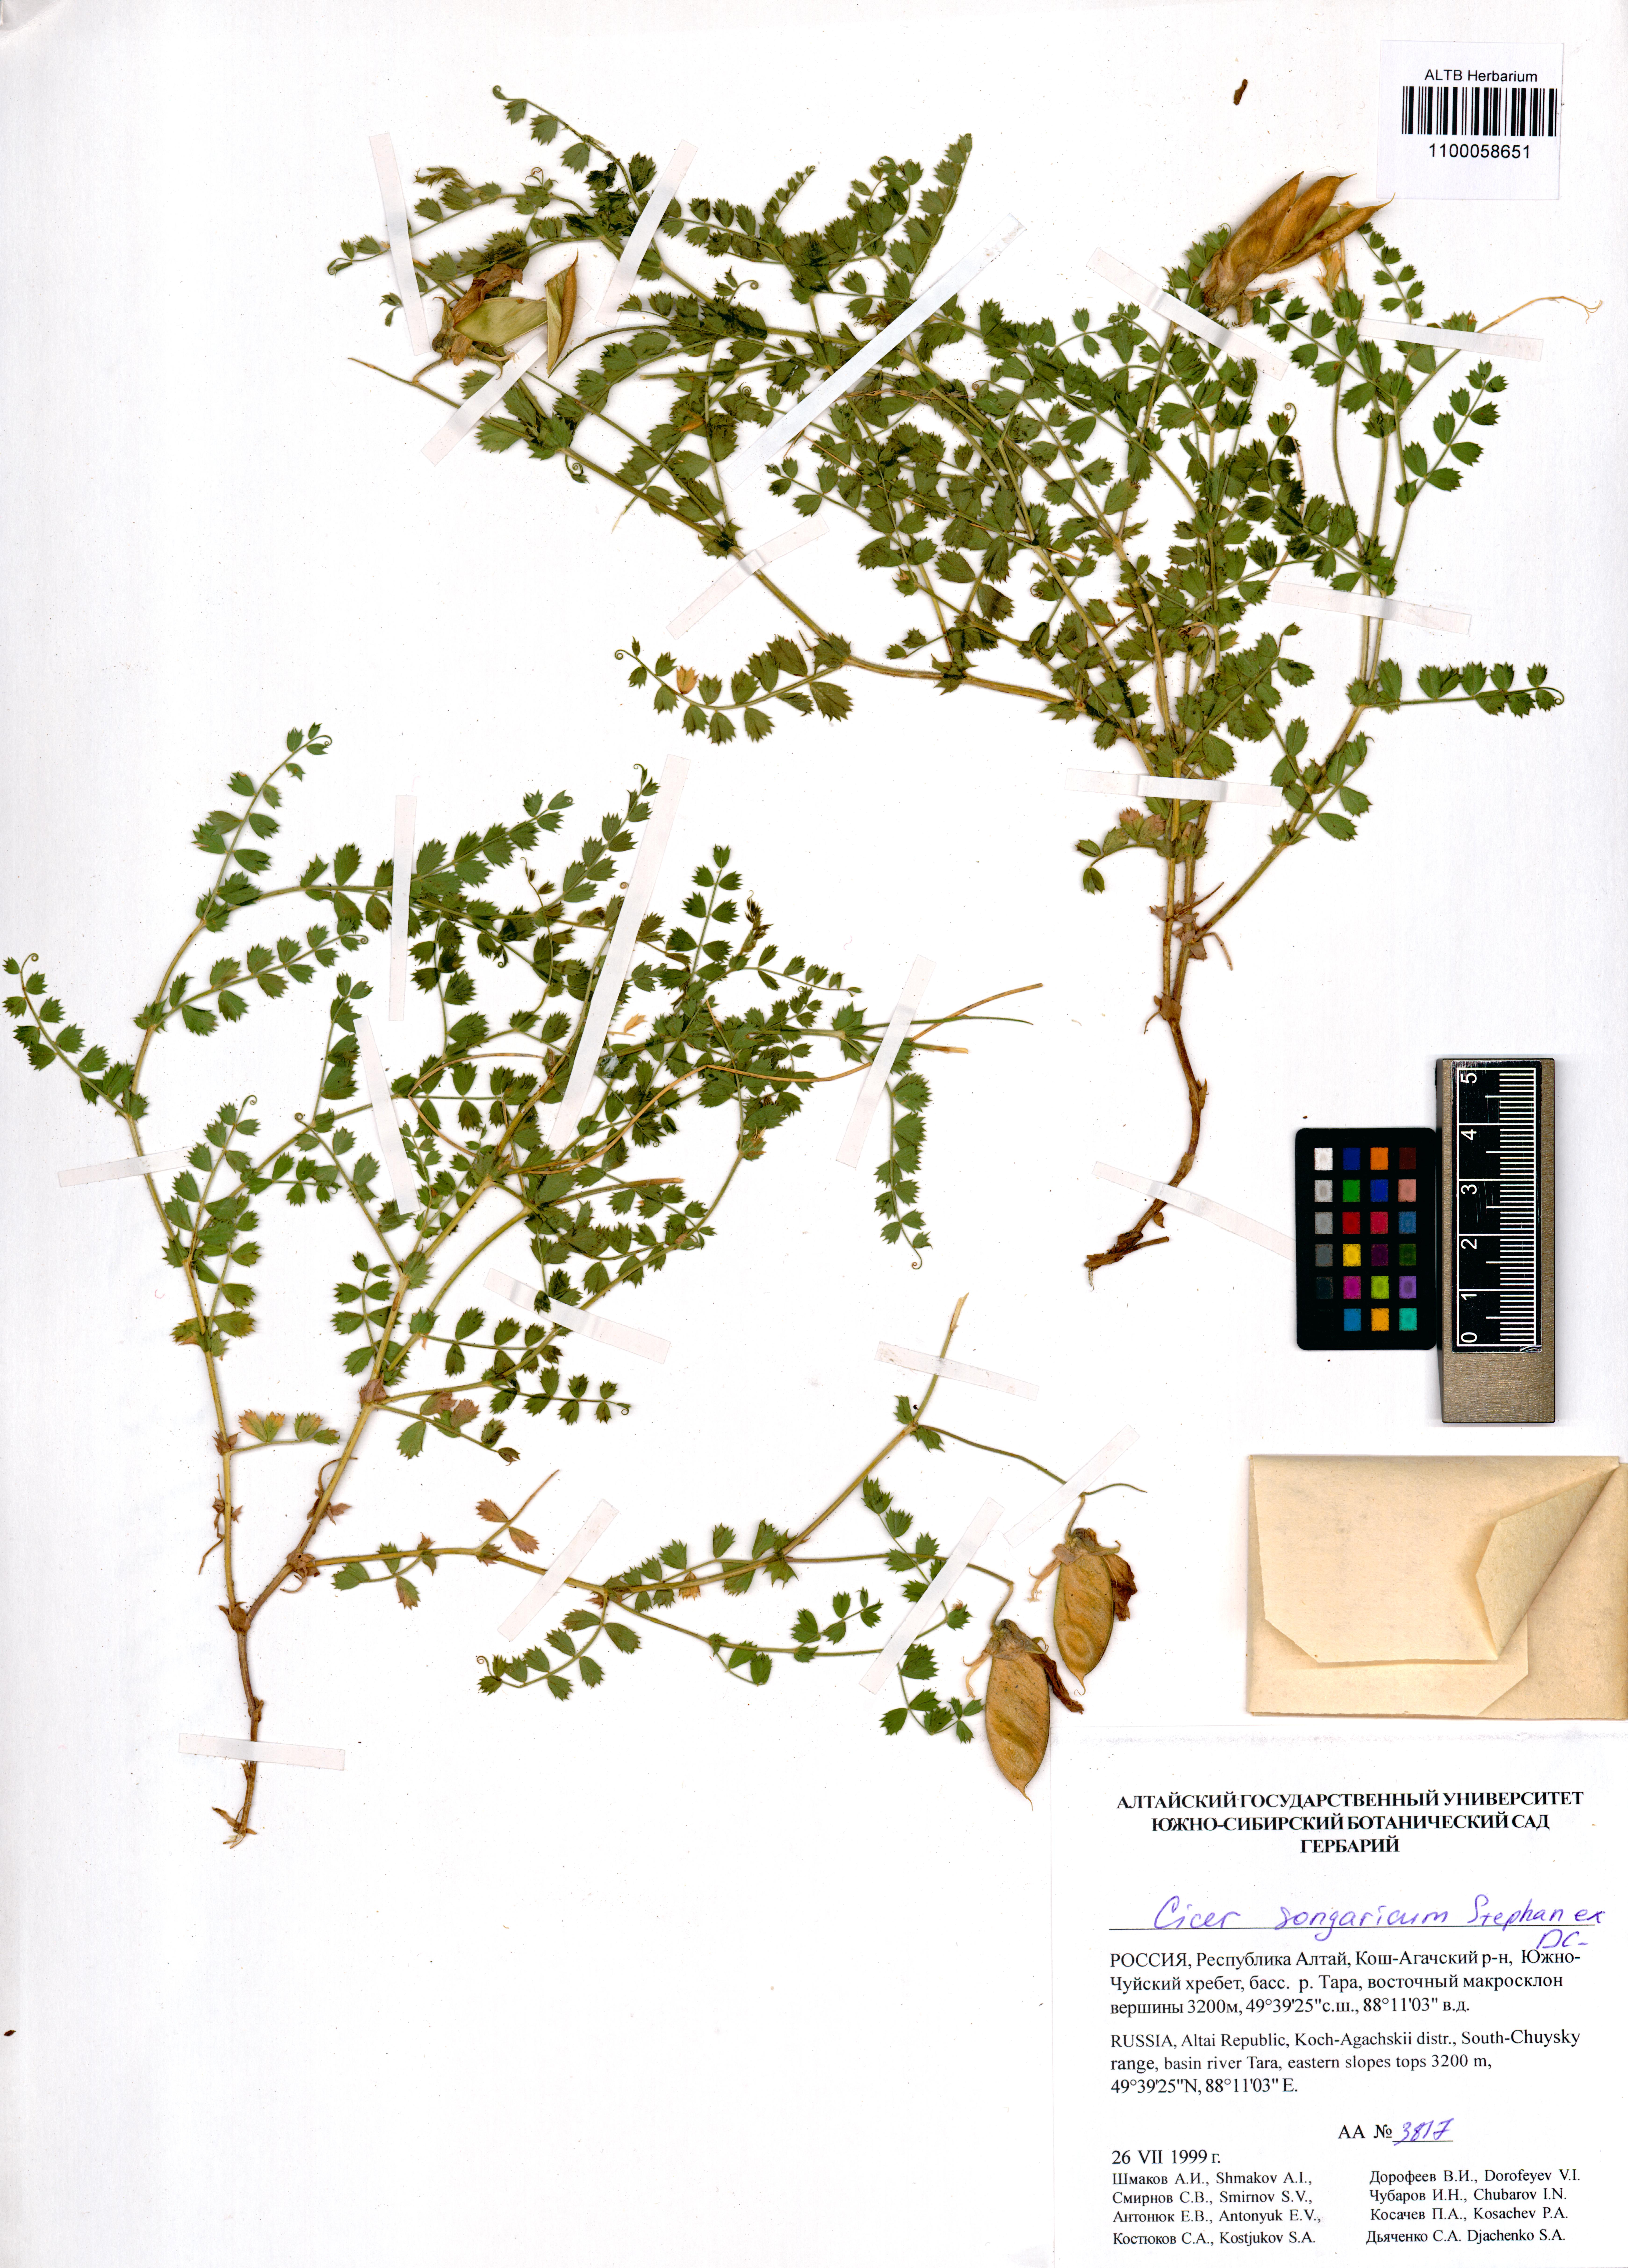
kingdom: Plantae
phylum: Tracheophyta
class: Magnoliopsida
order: Fabales
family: Fabaceae
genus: Cicer
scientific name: Cicer songaricum
